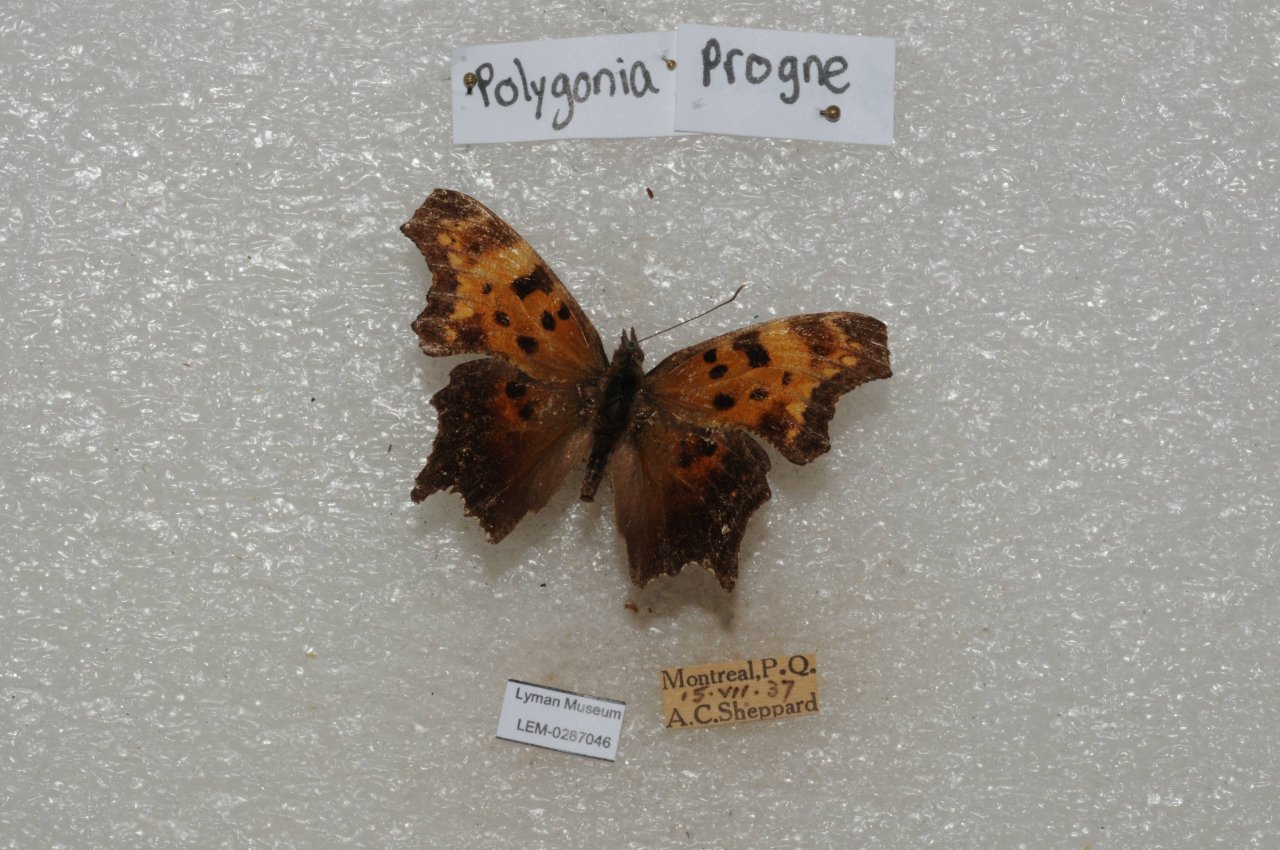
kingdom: Animalia
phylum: Arthropoda
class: Insecta
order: Lepidoptera
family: Nymphalidae
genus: Polygonia
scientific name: Polygonia progne
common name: Gray Comma
